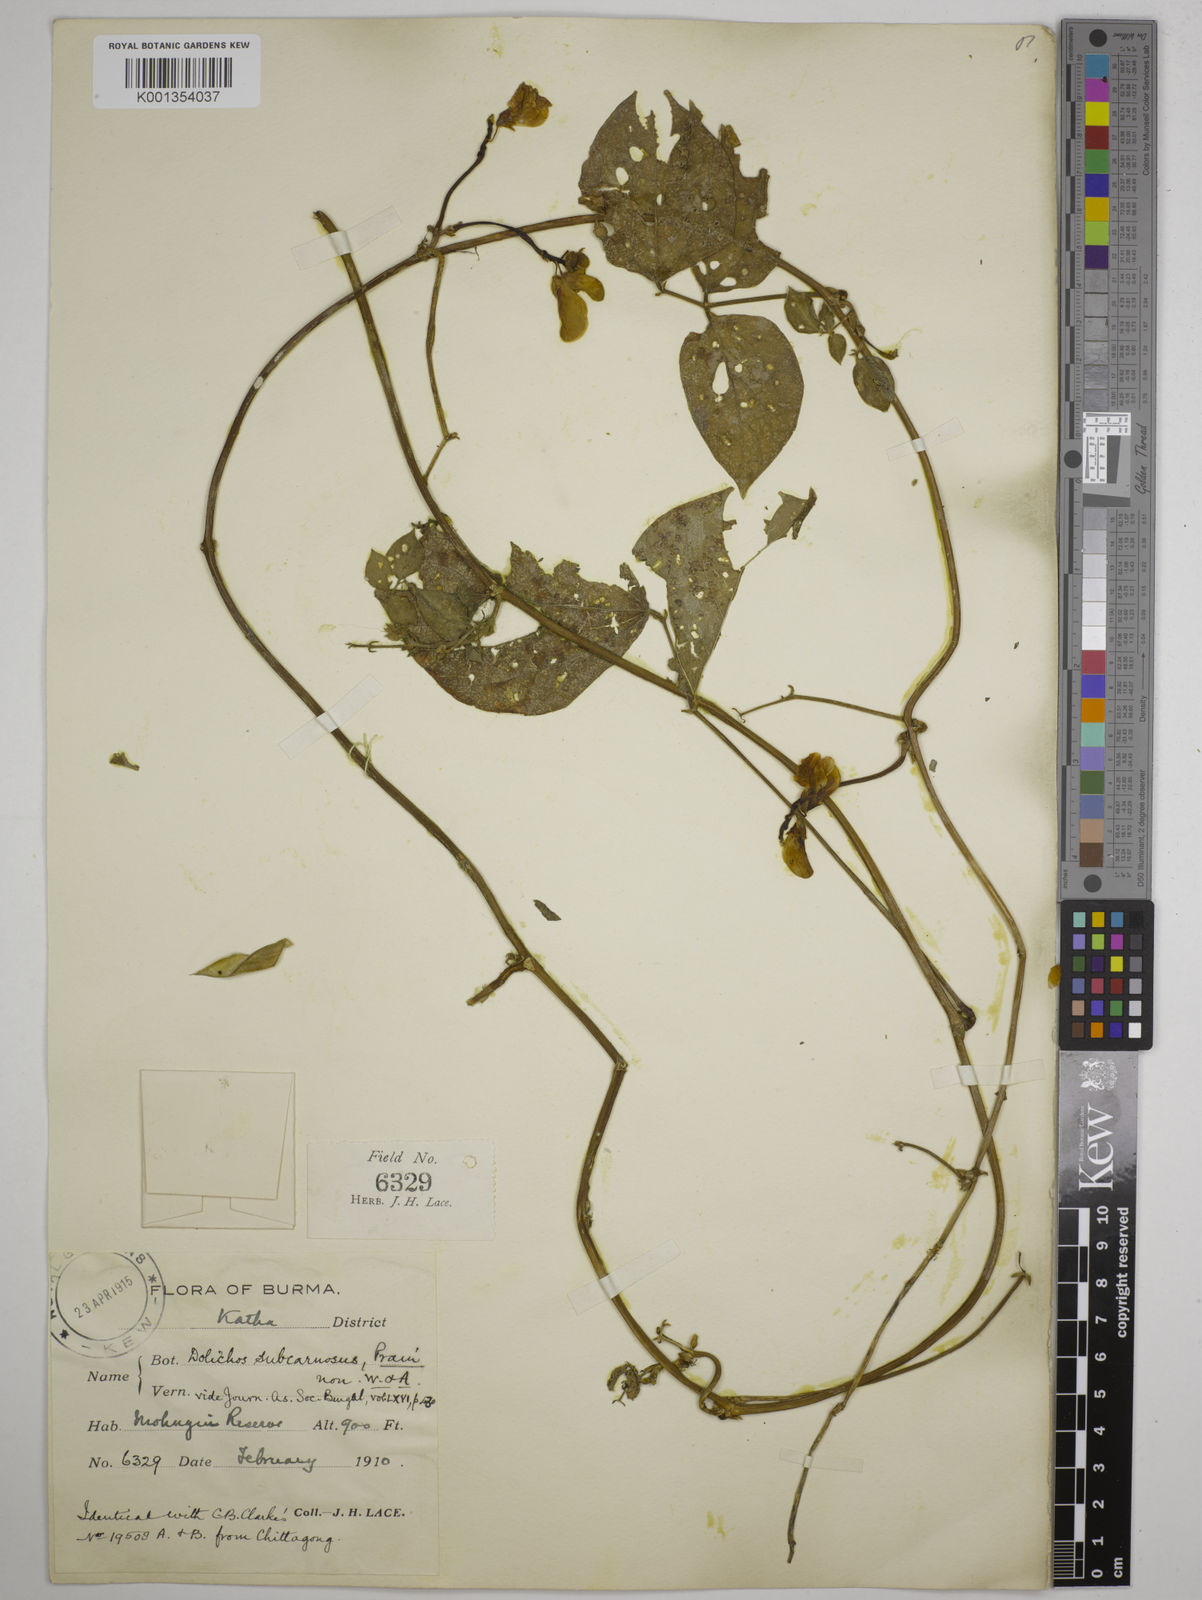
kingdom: Plantae
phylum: Tracheophyta
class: Magnoliopsida
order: Fabales
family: Fabaceae
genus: Wajira
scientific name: Wajira grahamiana
